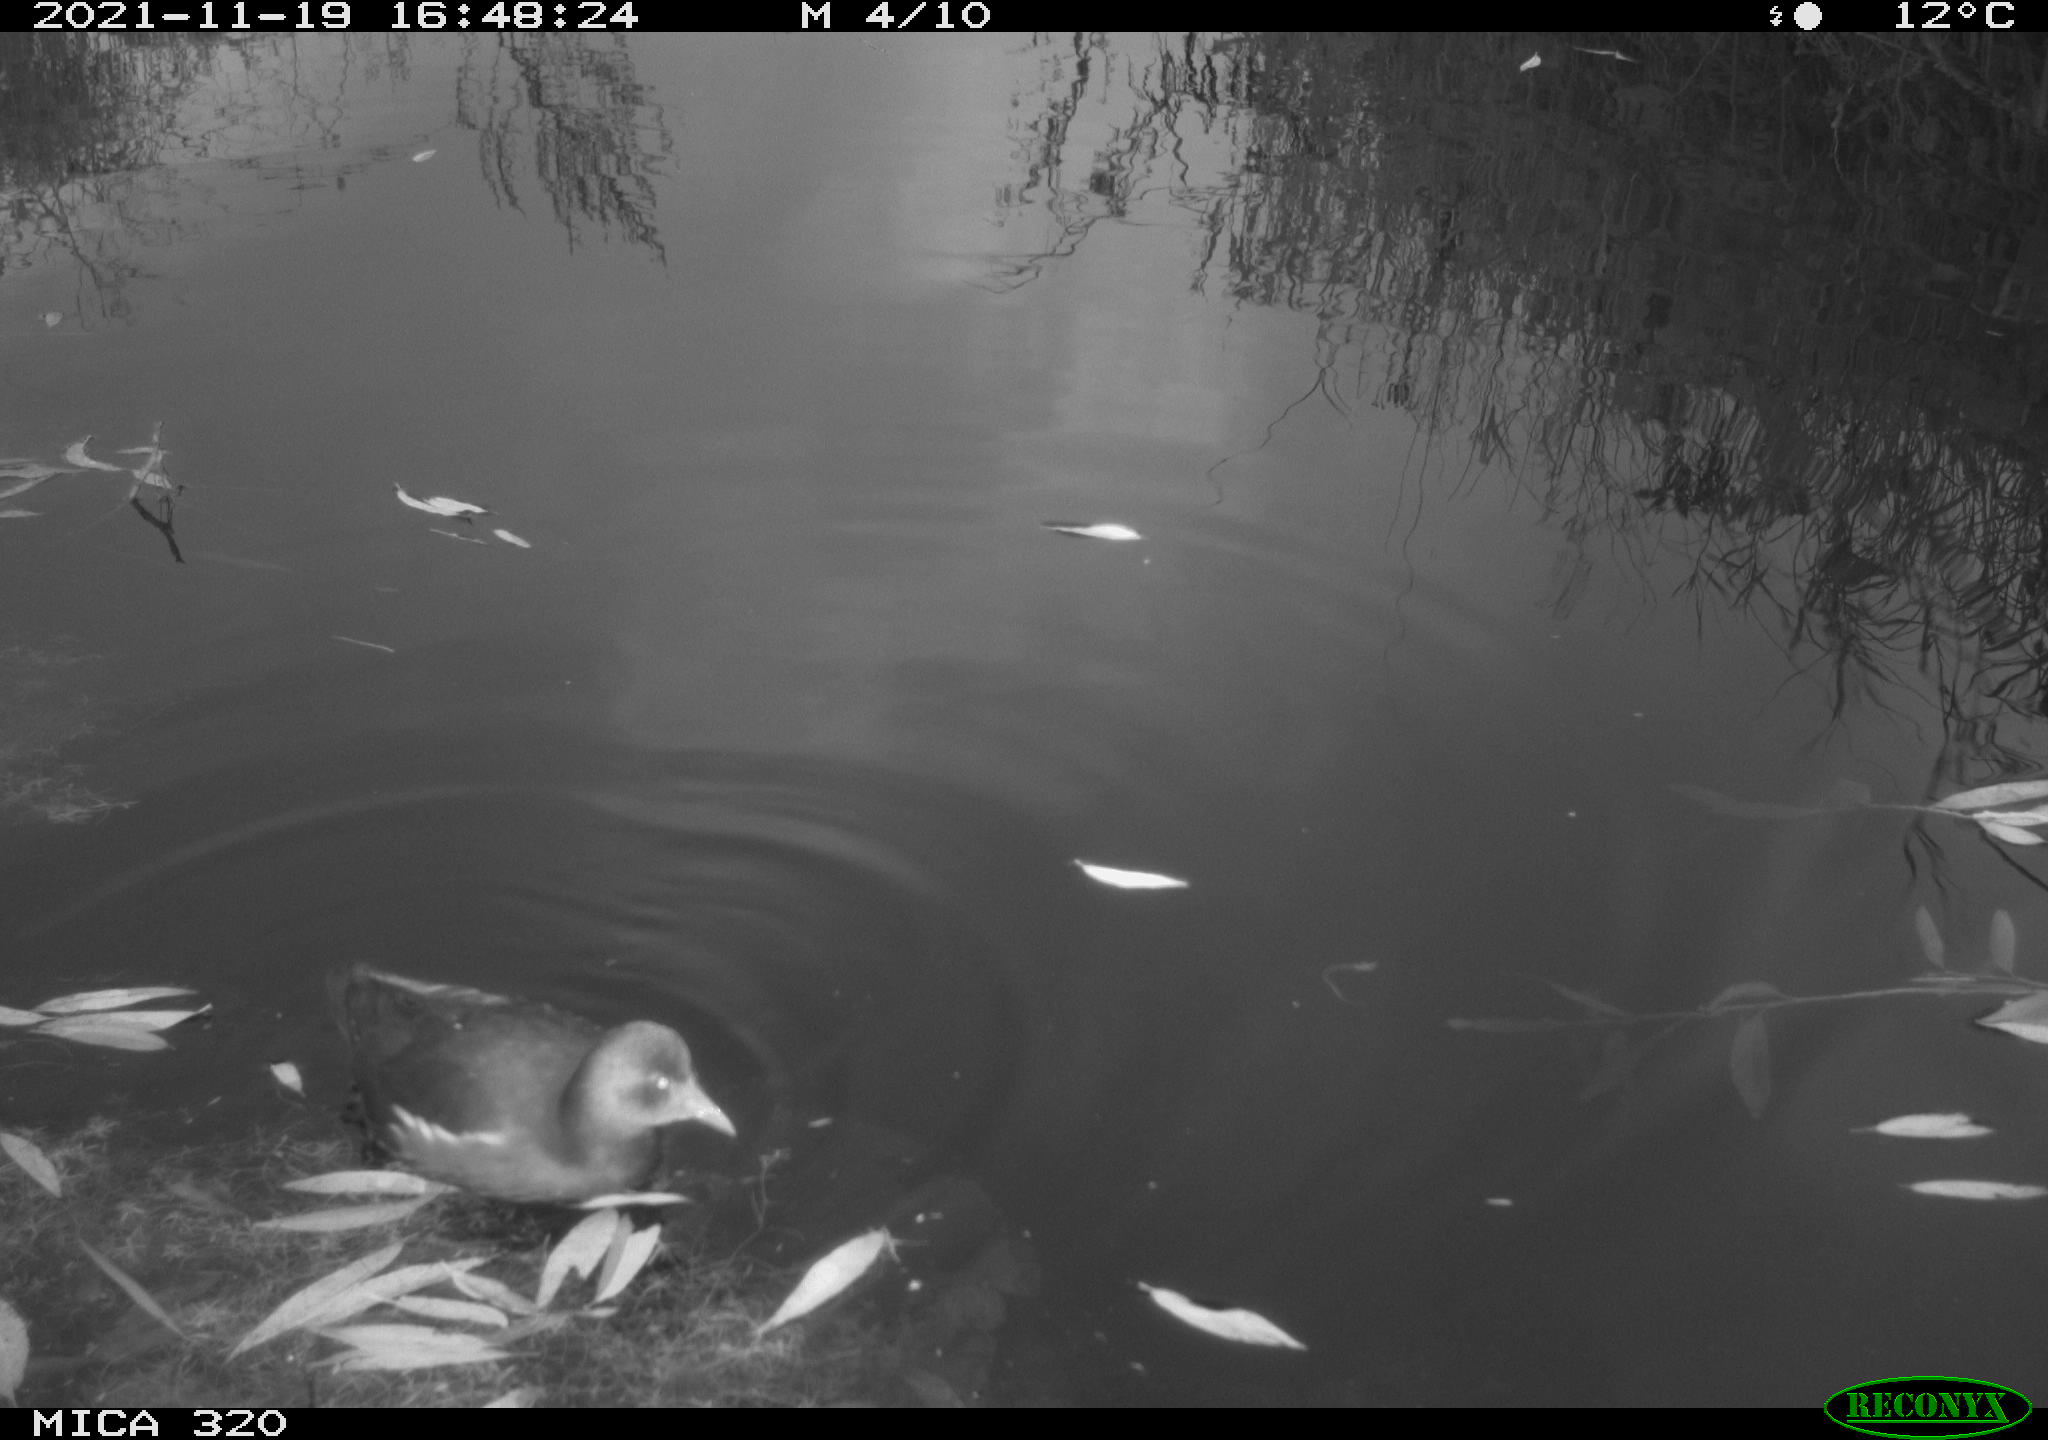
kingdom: Animalia
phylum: Chordata
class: Aves
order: Gruiformes
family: Rallidae
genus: Gallinula
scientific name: Gallinula chloropus
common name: Common moorhen
